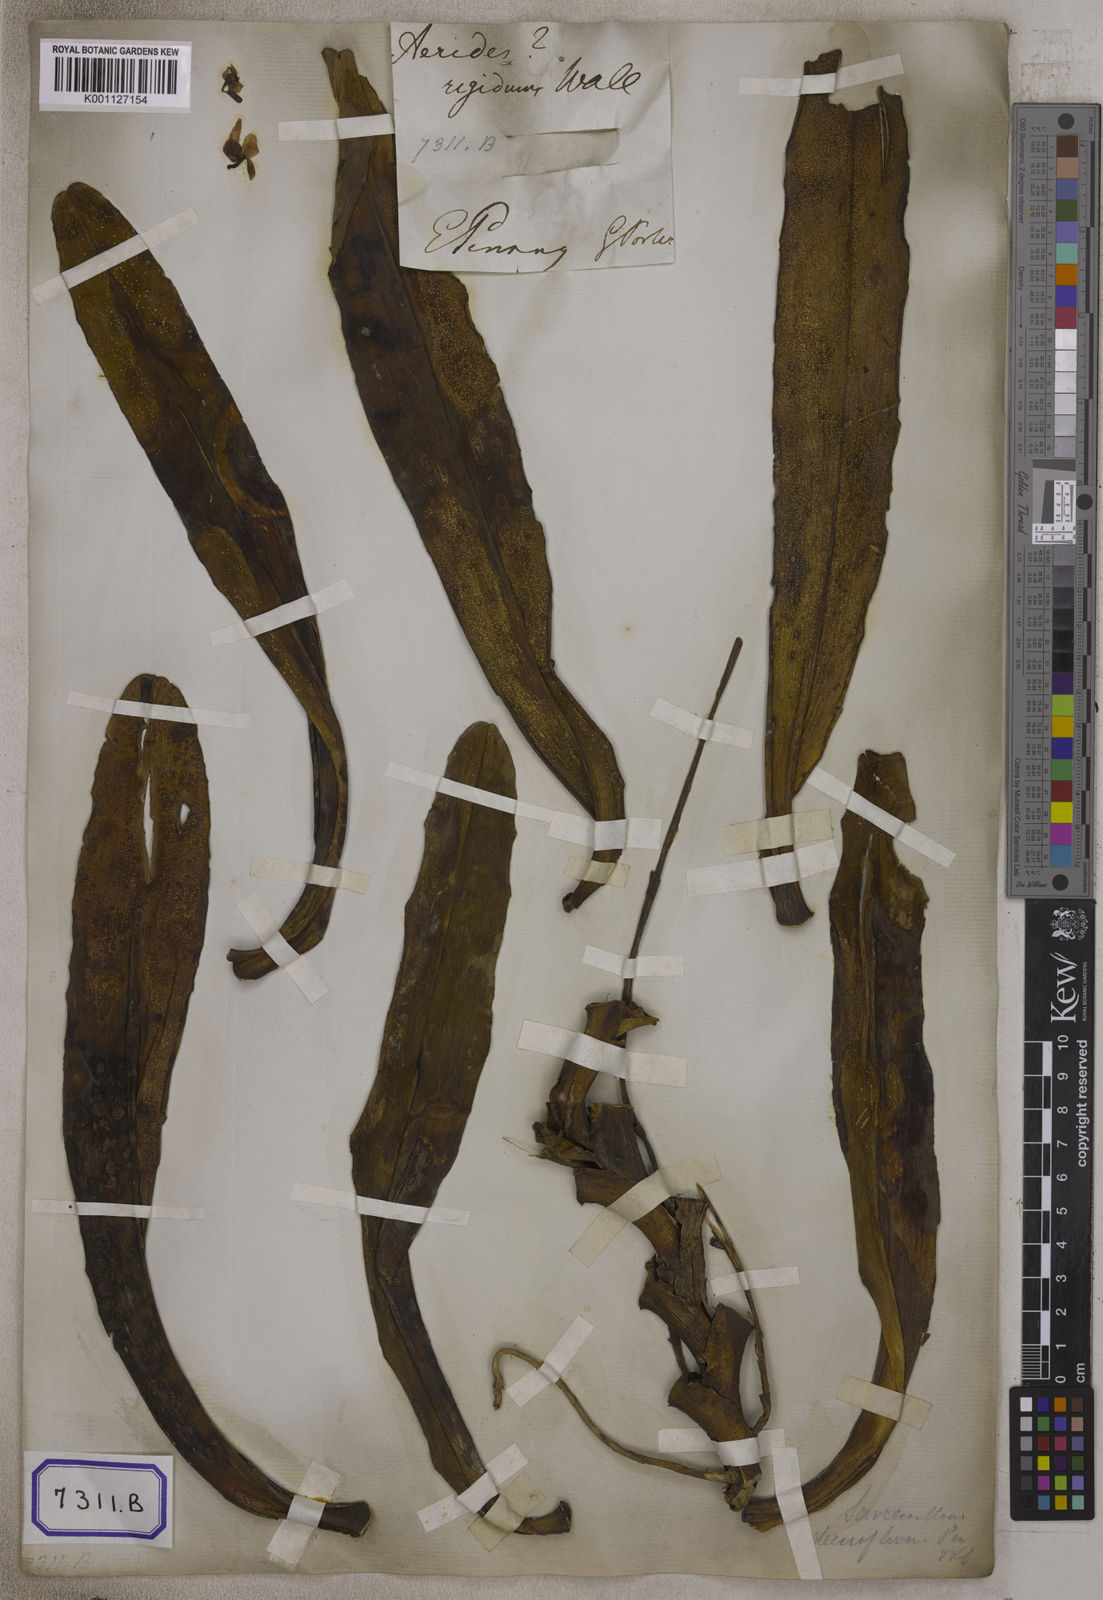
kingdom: Plantae
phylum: Tracheophyta
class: Liliopsida
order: Asparagales
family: Orchidaceae
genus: Robiquetia
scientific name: Robiquetia spathulata
